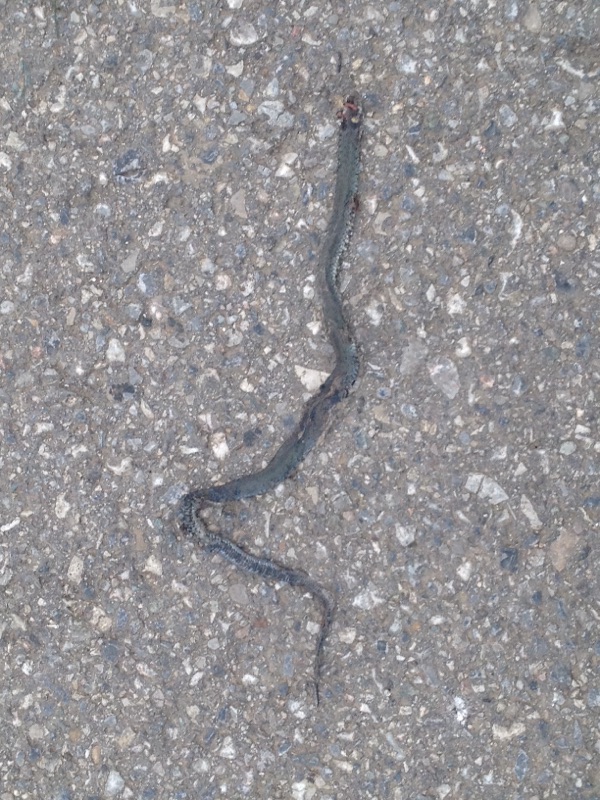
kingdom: Animalia
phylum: Chordata
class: Squamata
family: Colubridae
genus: Natrix
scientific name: Natrix natrix
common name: Grass snake
